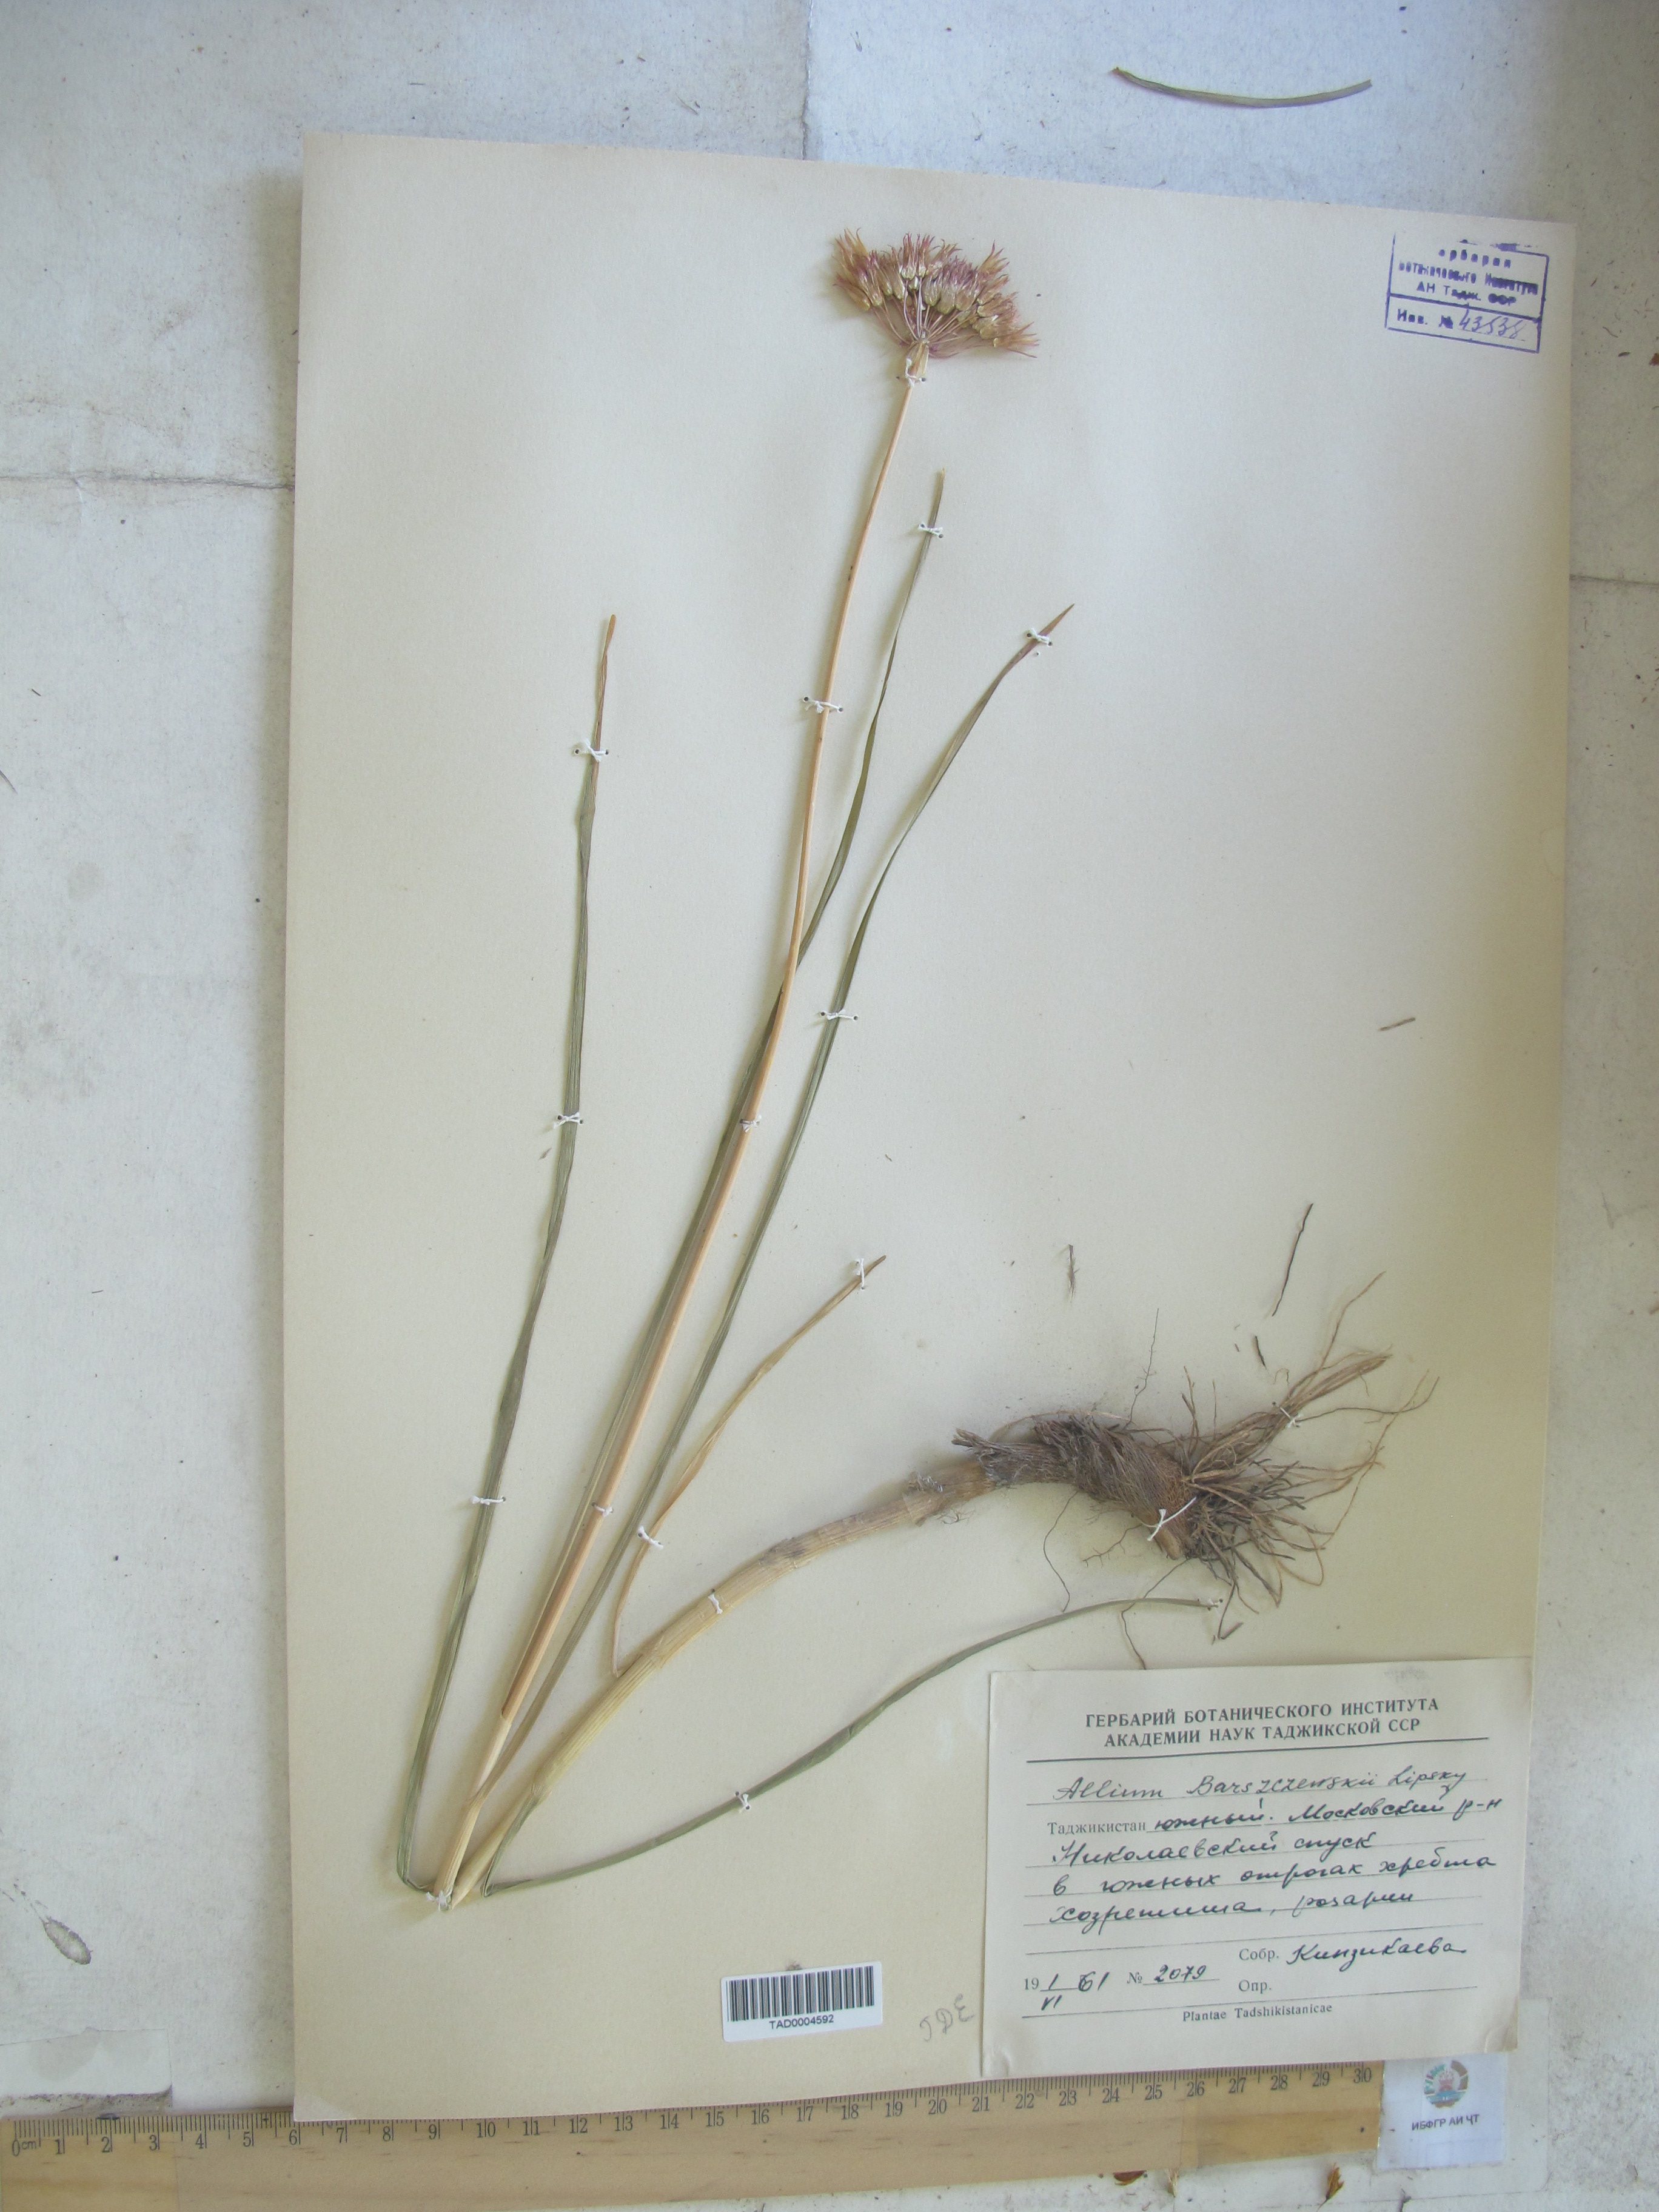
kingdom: Plantae
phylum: Tracheophyta
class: Liliopsida
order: Asparagales
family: Amaryllidaceae
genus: Allium
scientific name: Allium barsczewskii
